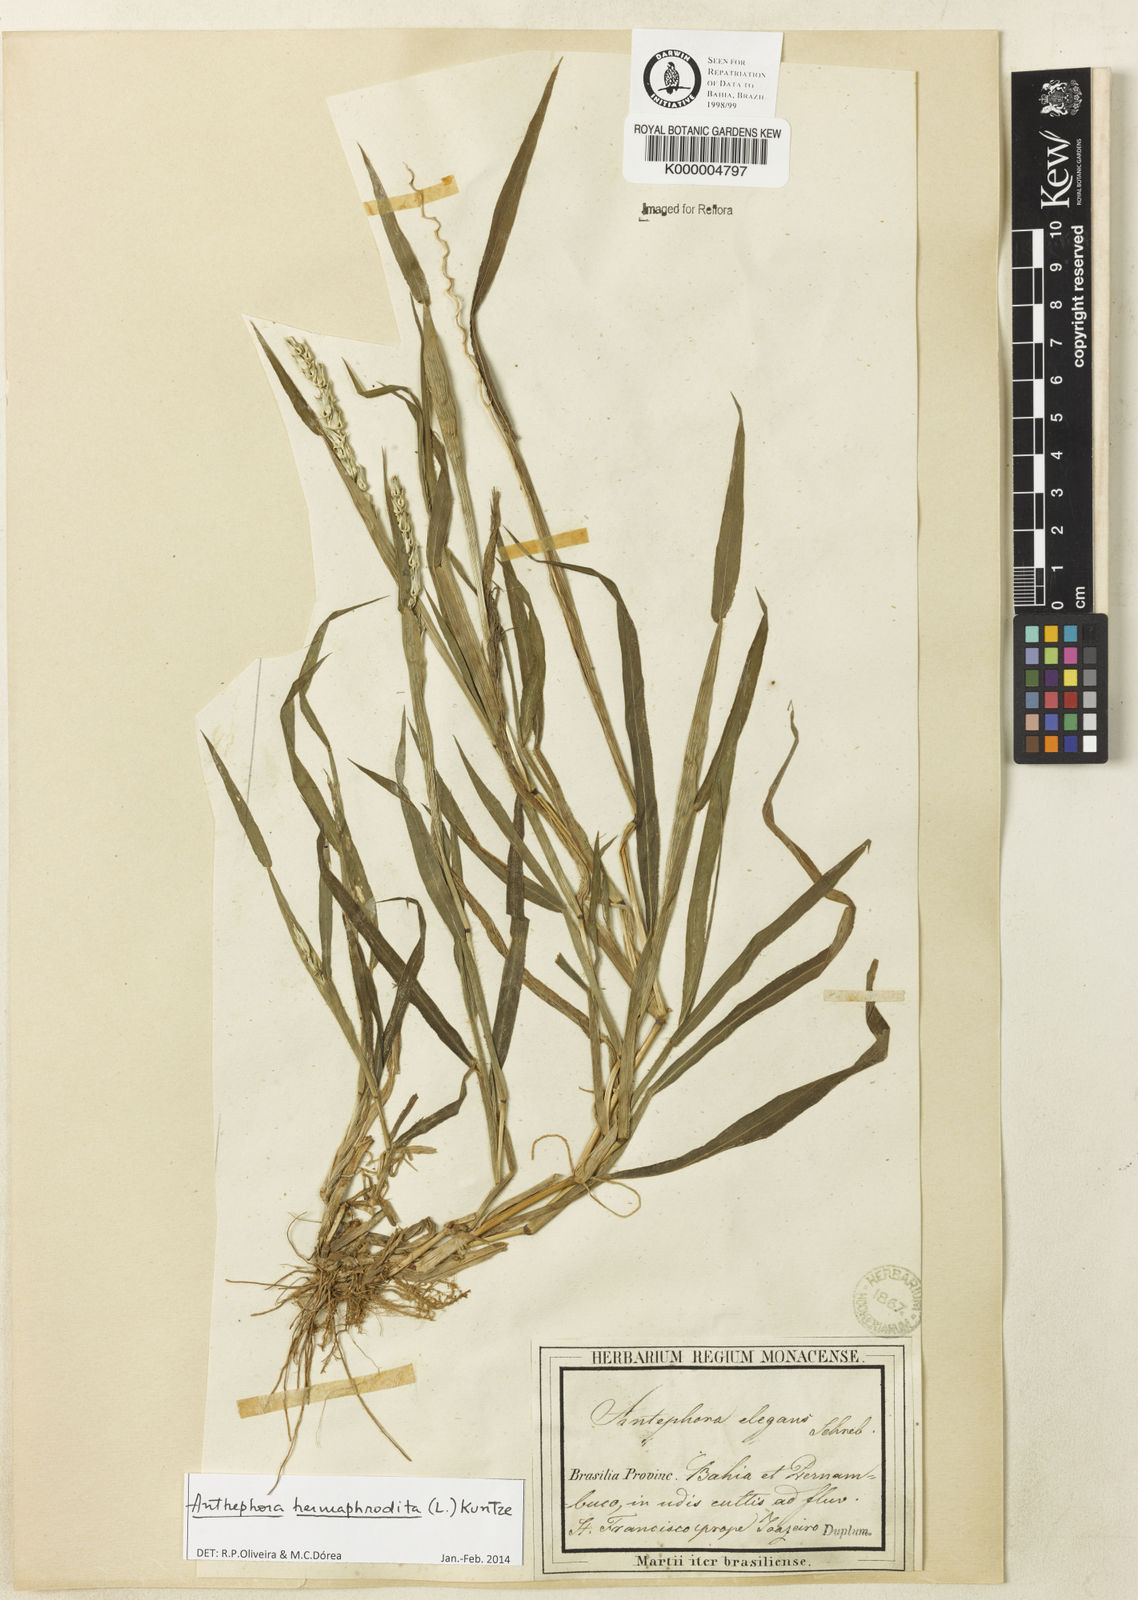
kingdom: Plantae
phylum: Tracheophyta
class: Liliopsida
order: Poales
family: Poaceae
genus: Anthephora
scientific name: Anthephora hermaphrodita
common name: Oldfield grass
